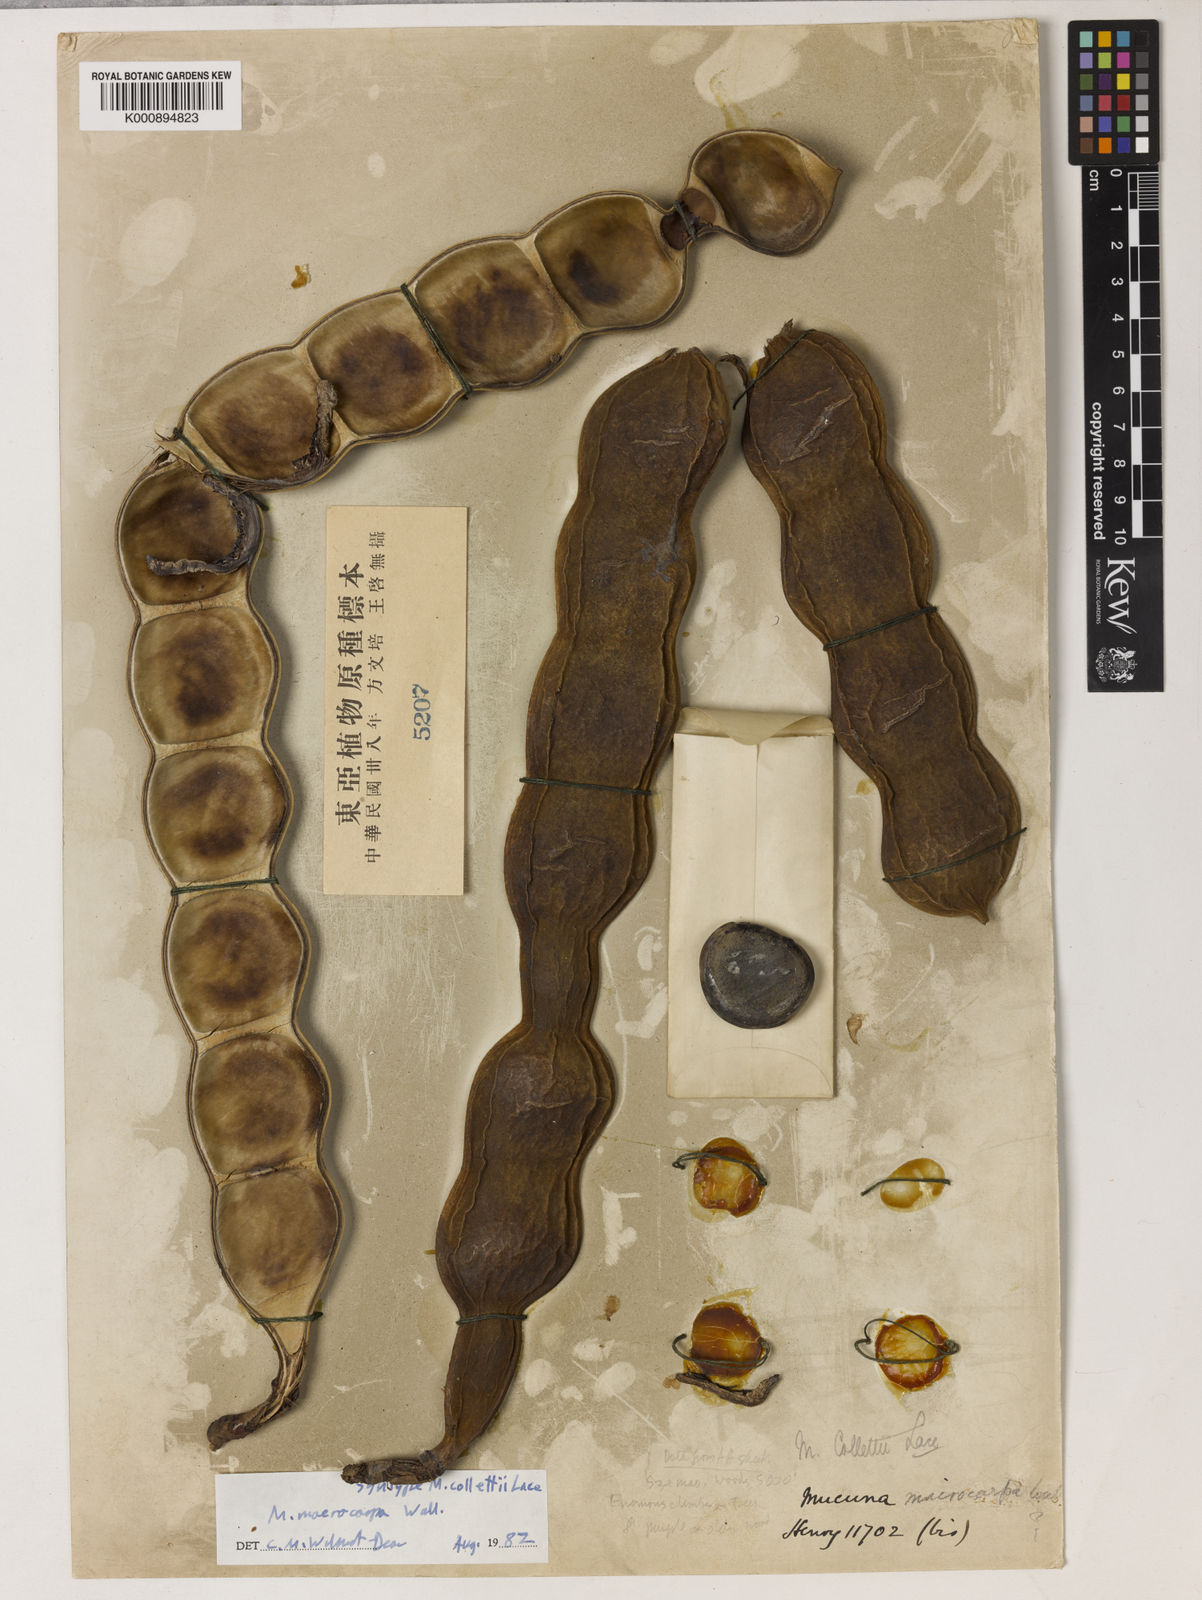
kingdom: Plantae
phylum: Tracheophyta
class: Magnoliopsida
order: Fabales
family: Fabaceae
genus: Mucuna
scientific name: Mucuna macrocarpa
